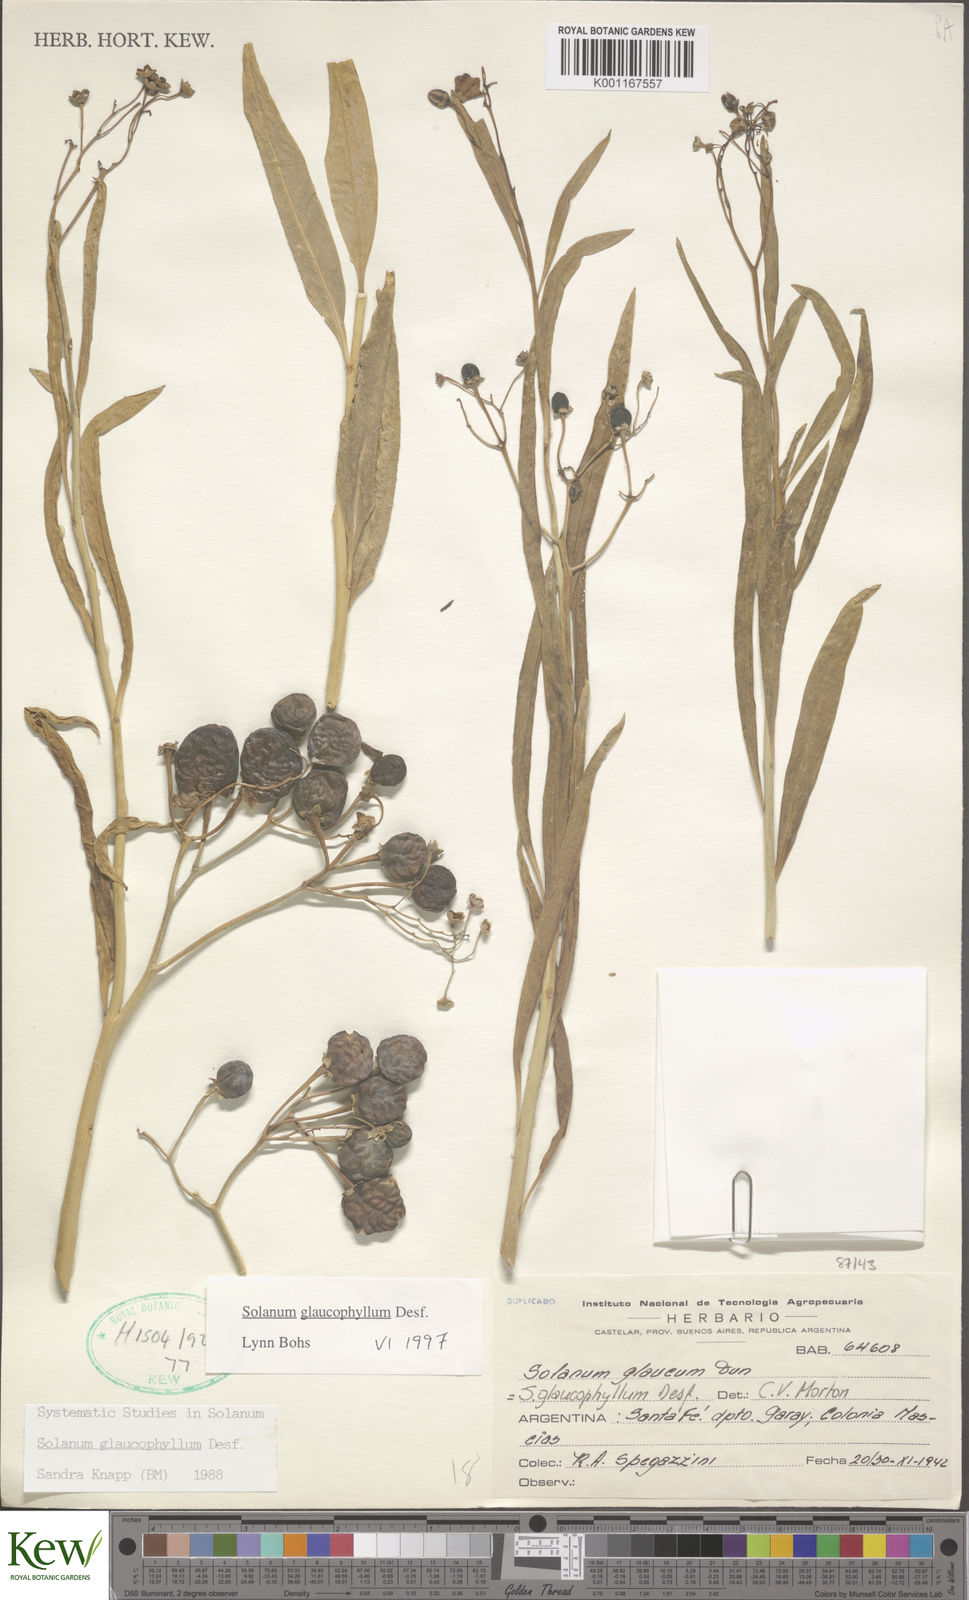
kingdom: Plantae
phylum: Tracheophyta
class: Magnoliopsida
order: Solanales
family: Solanaceae
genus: Solanum
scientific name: Solanum glaucophyllum
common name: Waxyleaf nightshade
